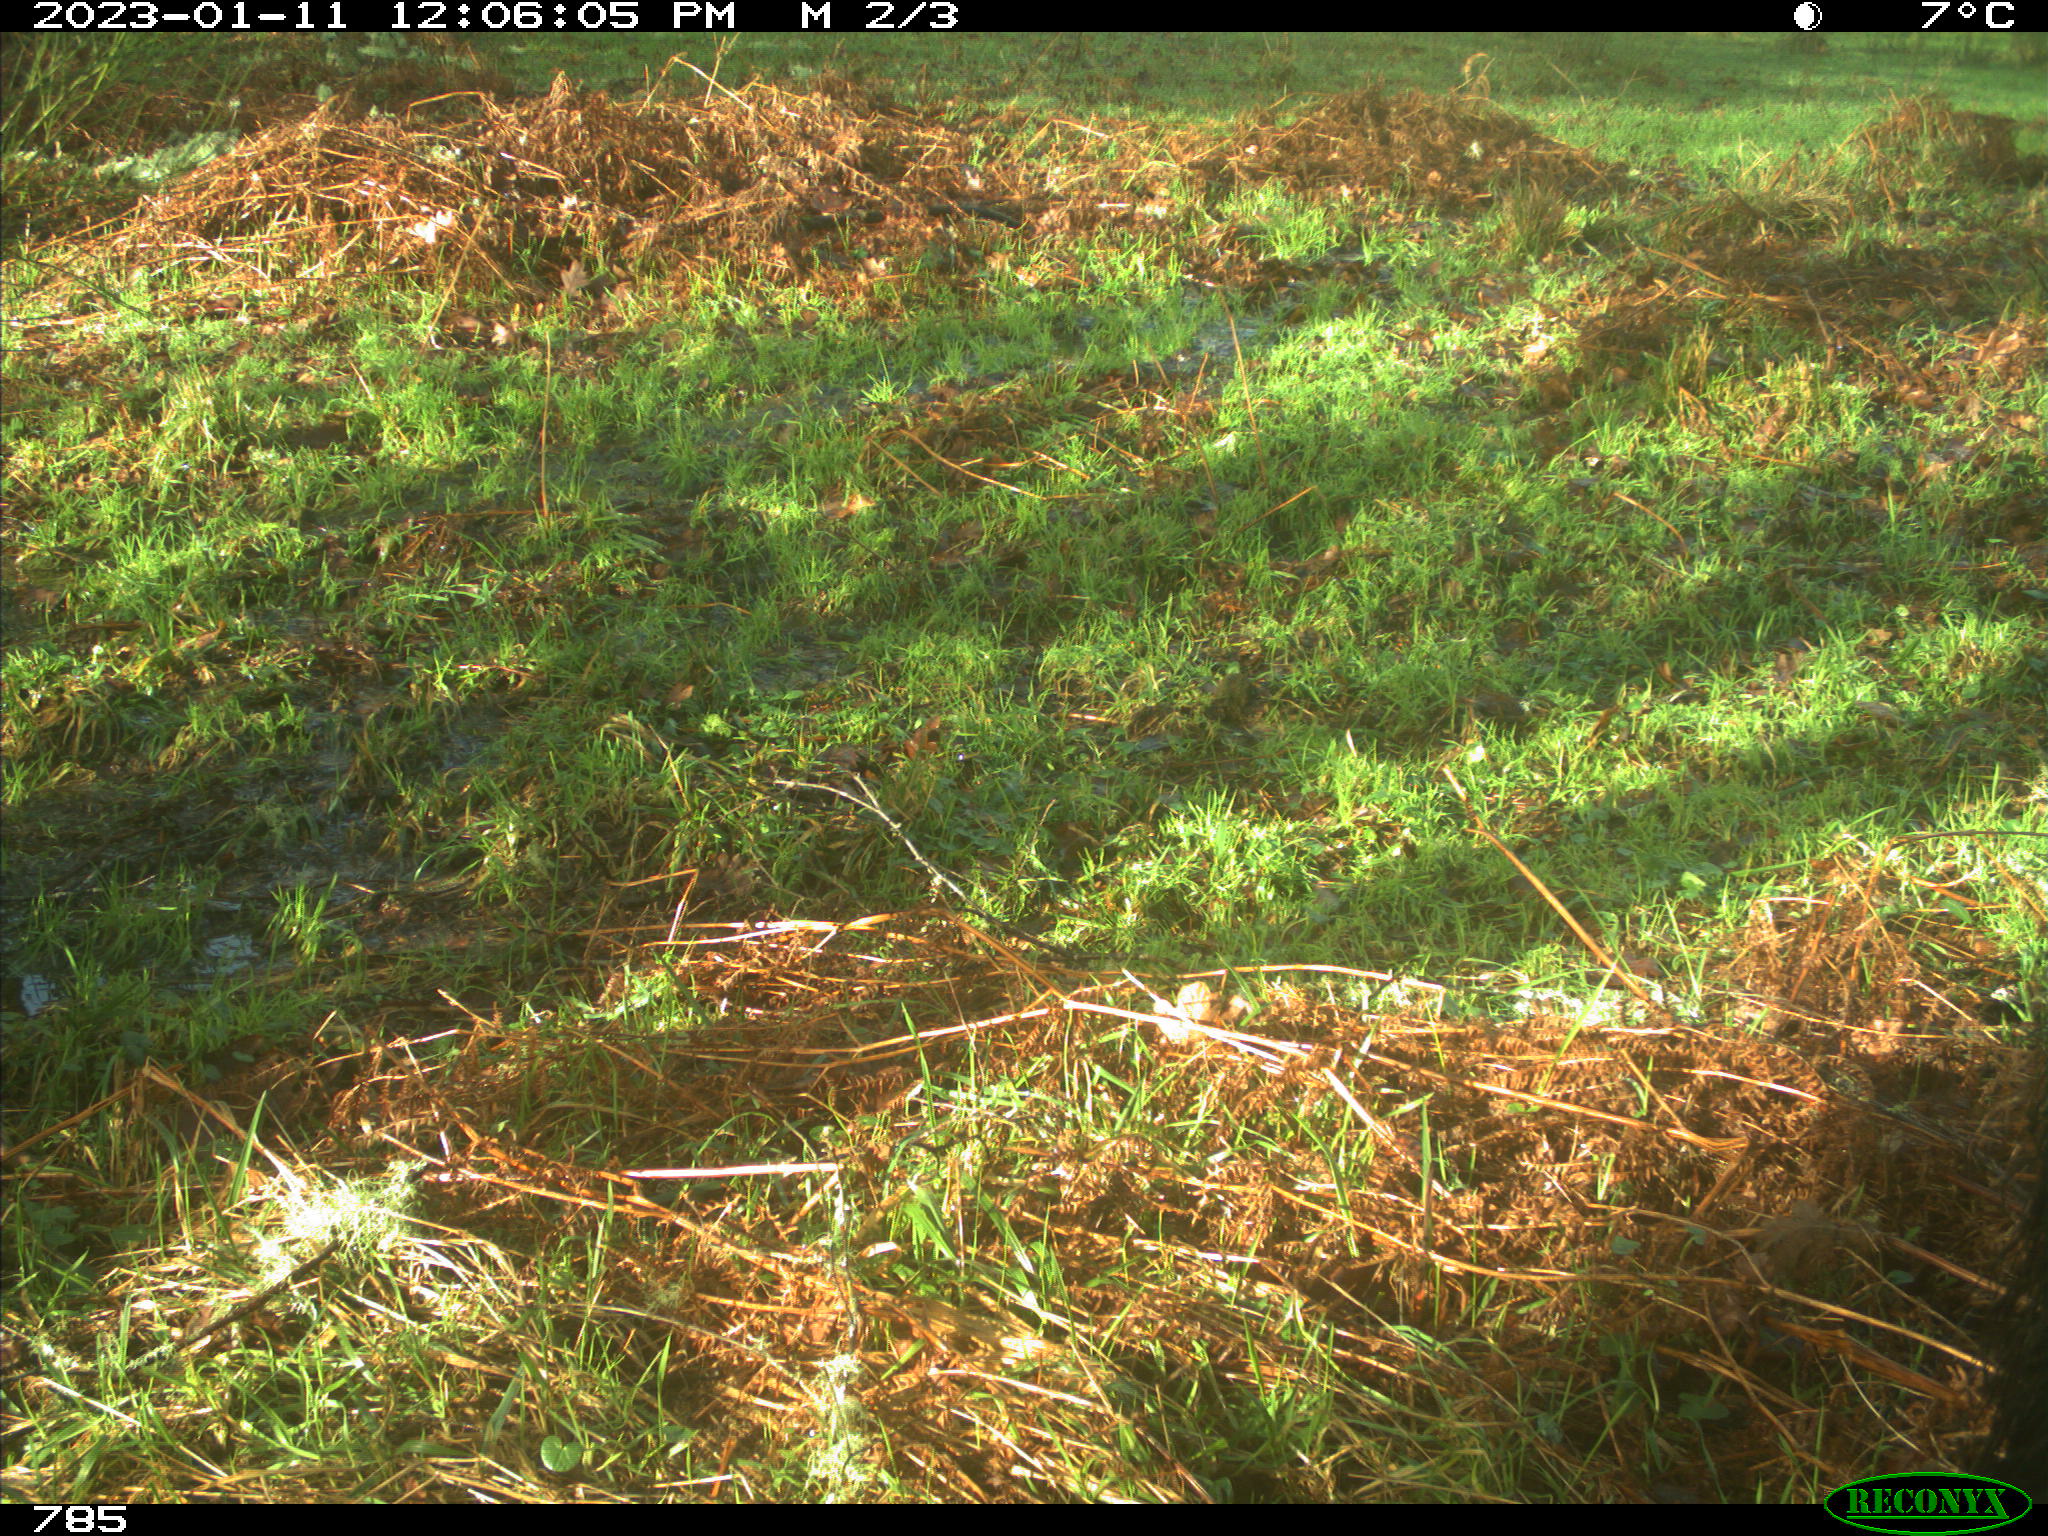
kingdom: Animalia
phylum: Chordata
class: Mammalia
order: Perissodactyla
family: Equidae
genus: Equus
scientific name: Equus caballus
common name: Horse
